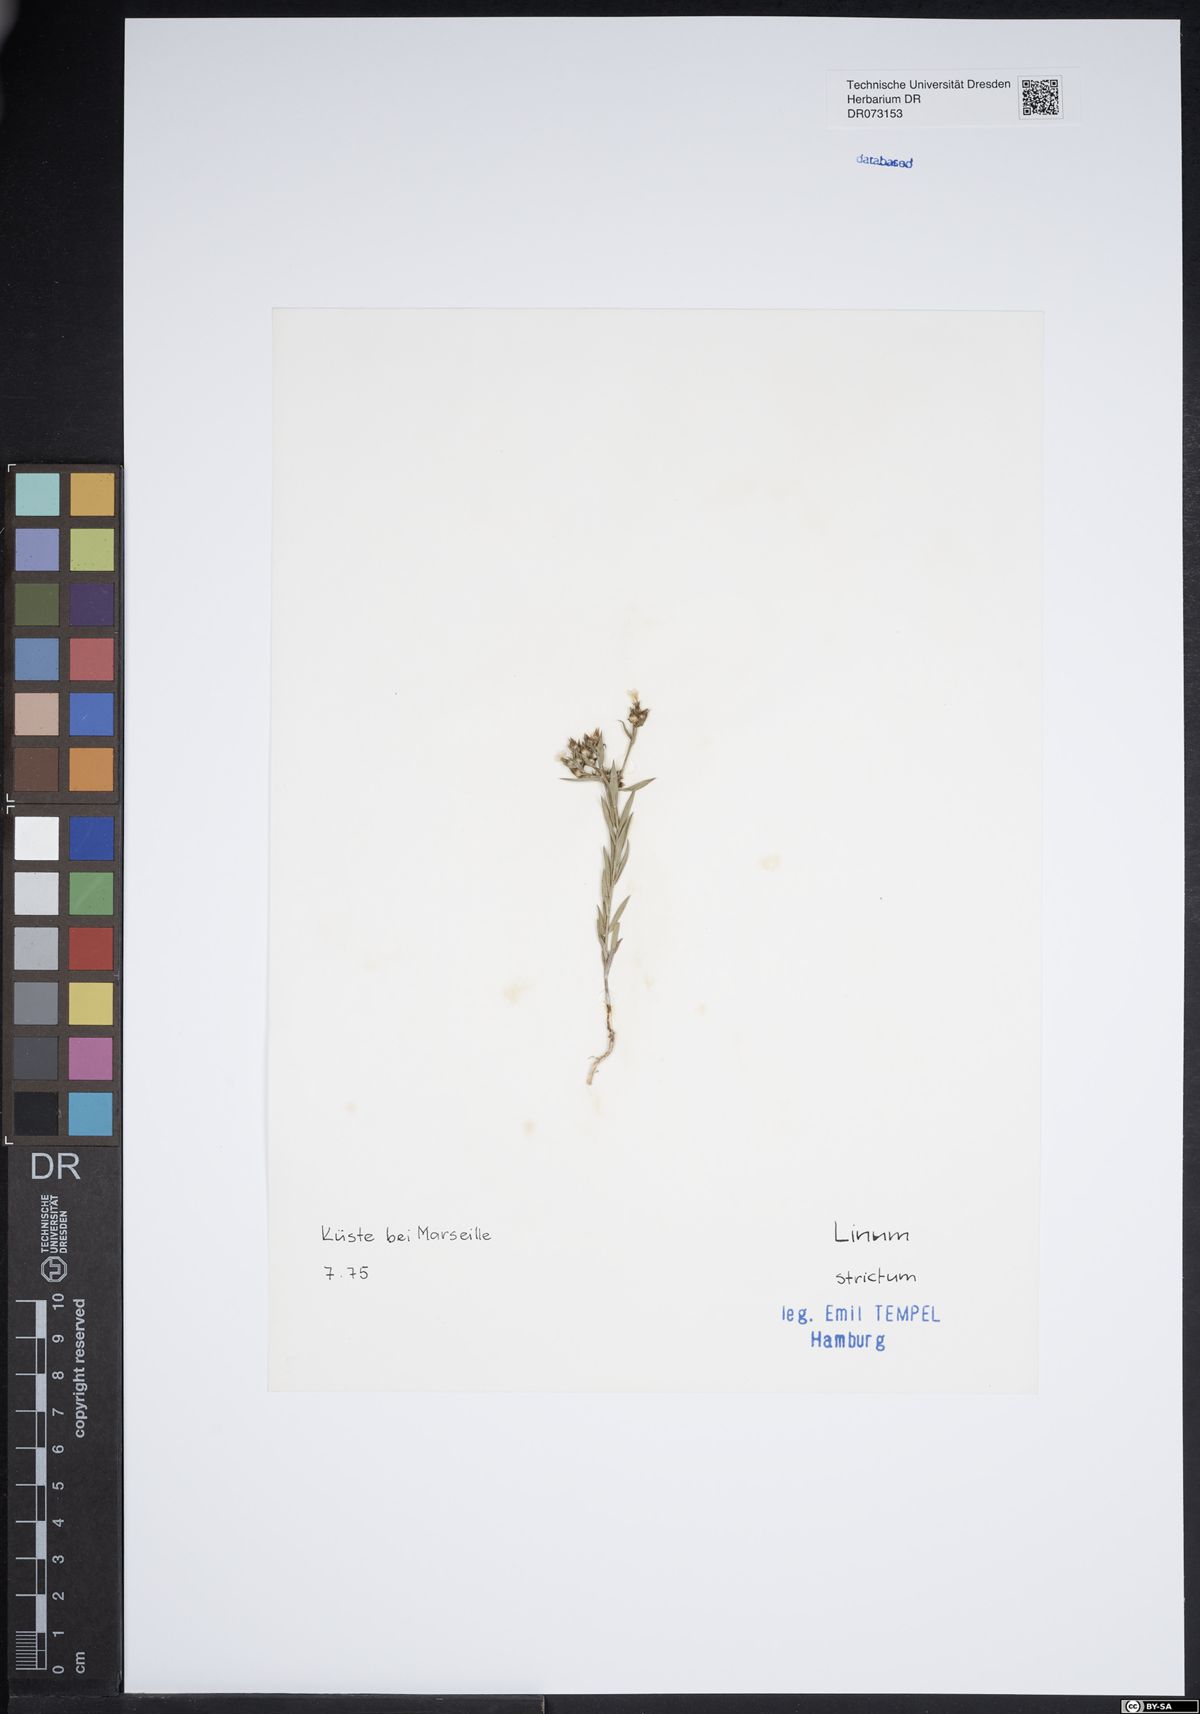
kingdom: Plantae
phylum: Tracheophyta
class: Magnoliopsida
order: Malpighiales
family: Linaceae
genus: Linum
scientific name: Linum strictum
